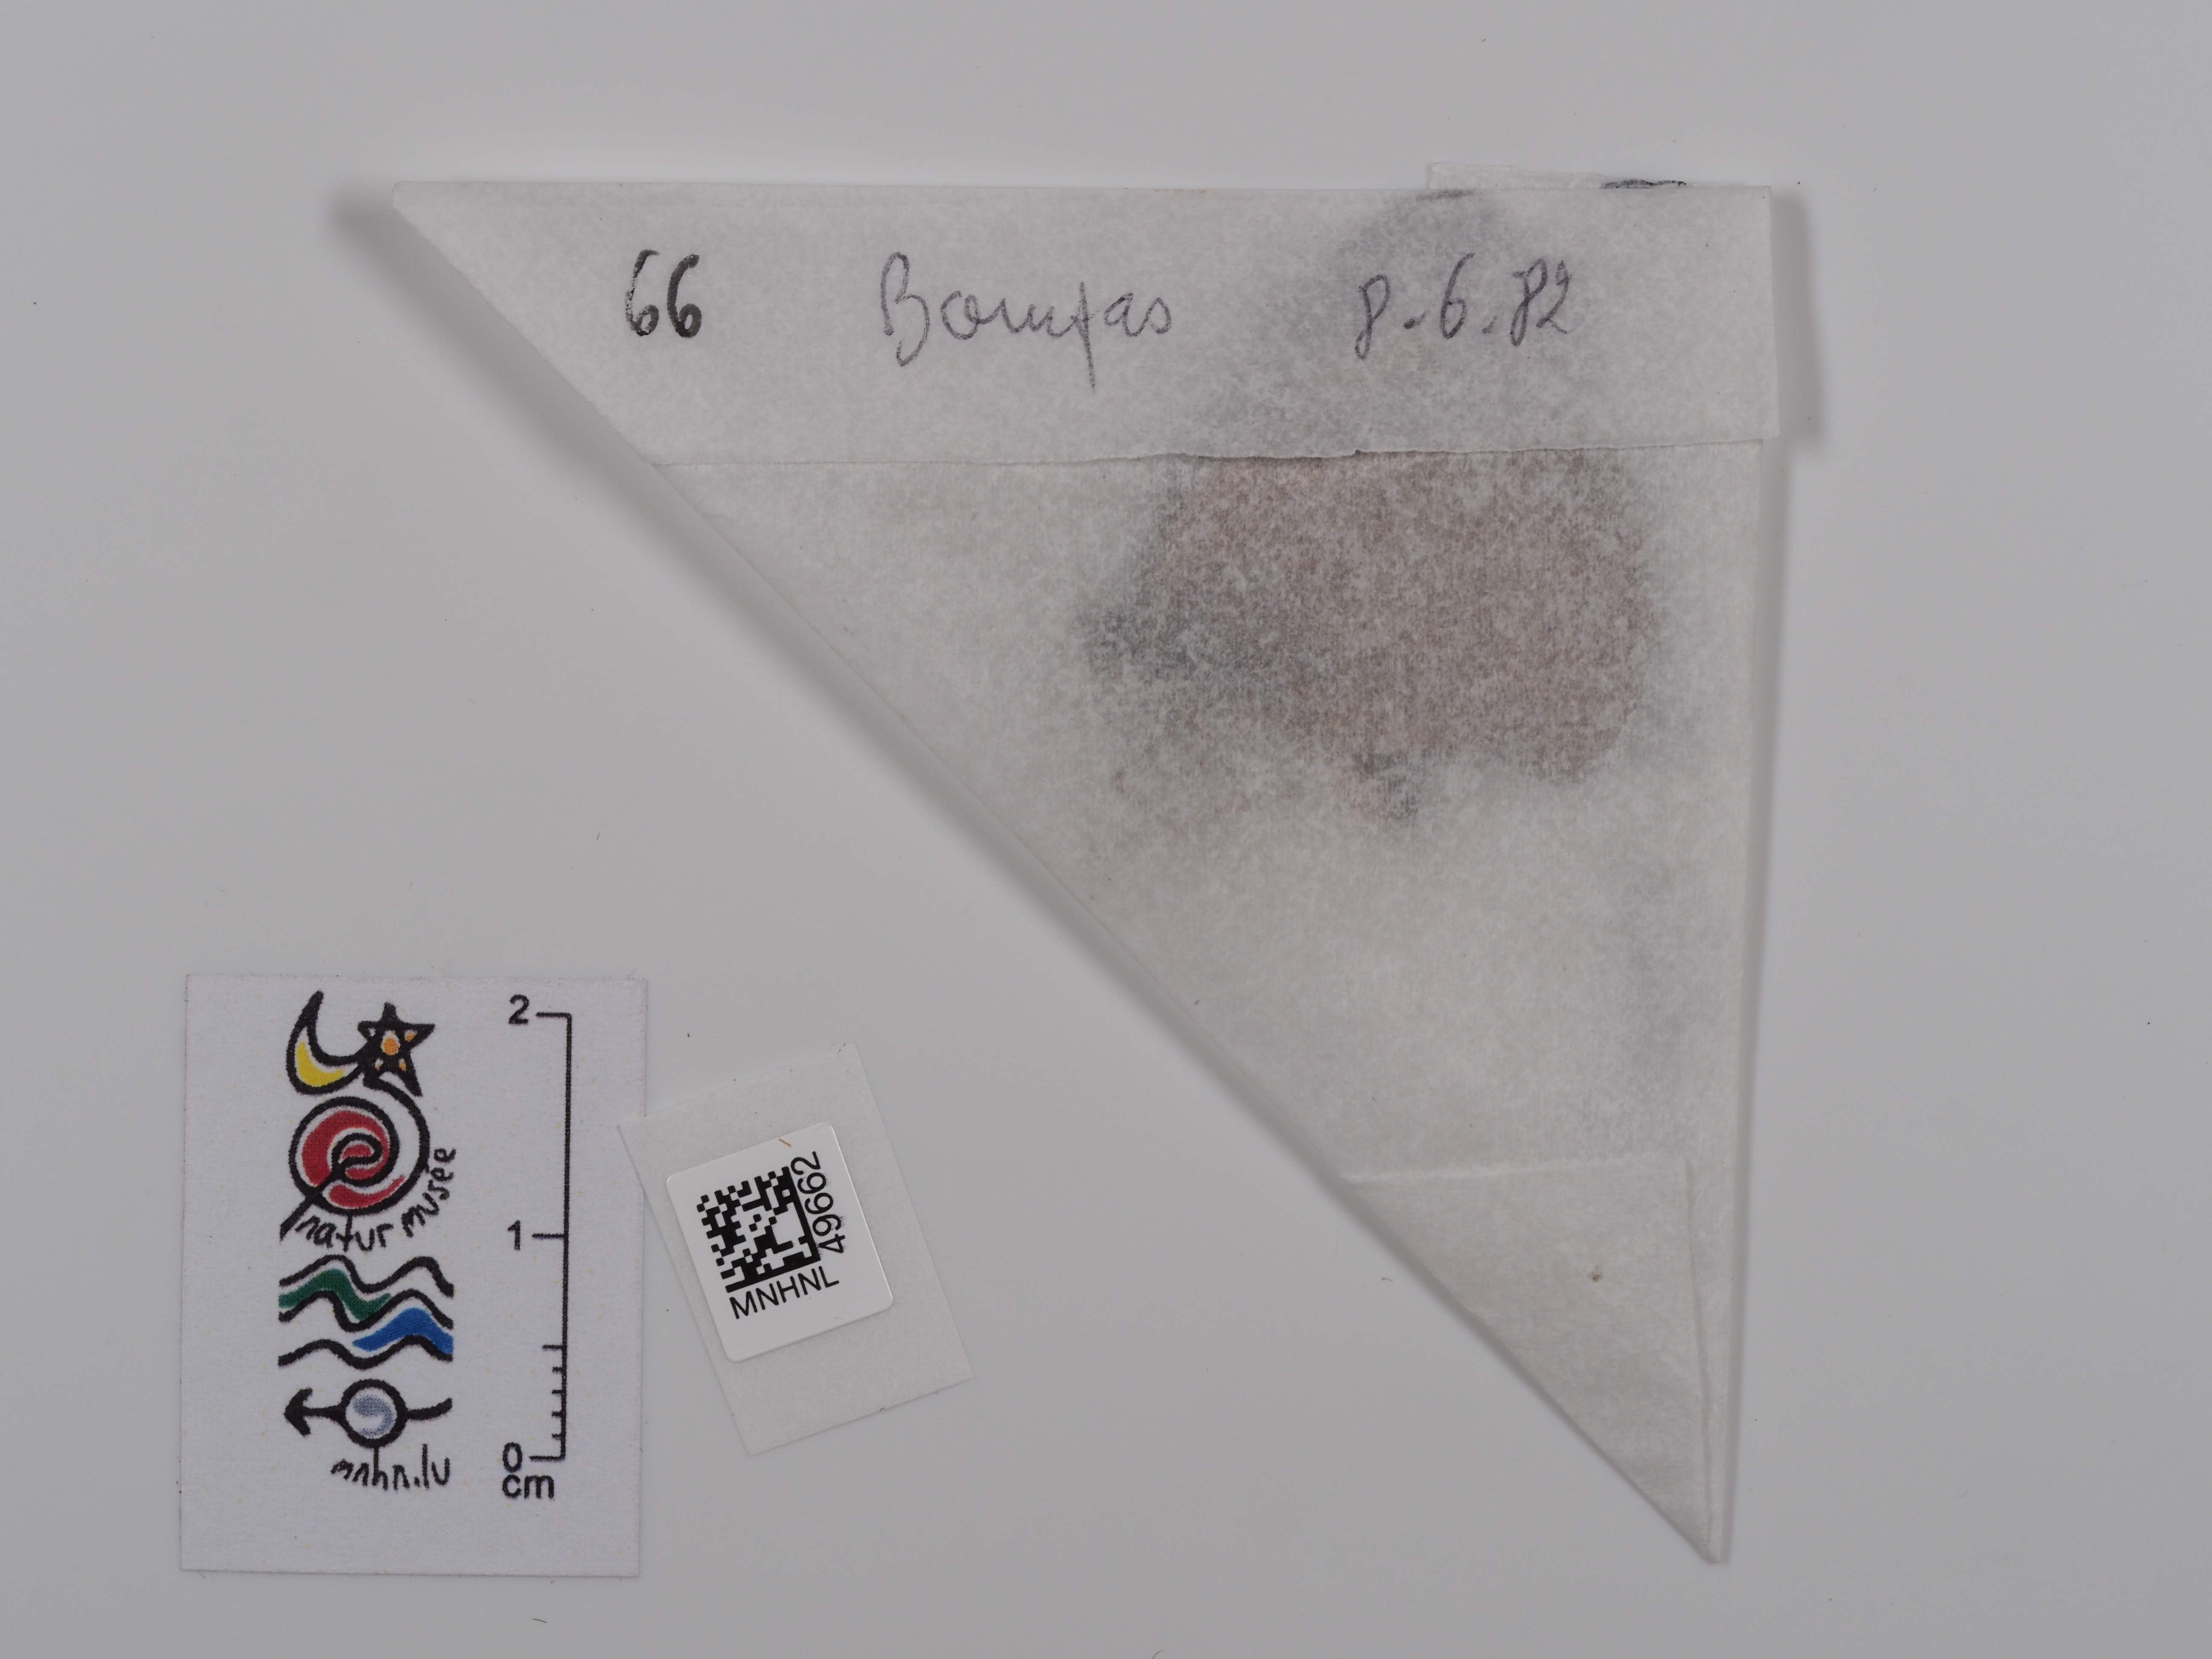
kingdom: Animalia
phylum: Arthropoda
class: Insecta
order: Lepidoptera
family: Nymphalidae
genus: Maniola
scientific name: Maniola jurtina
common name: Meadow brown
